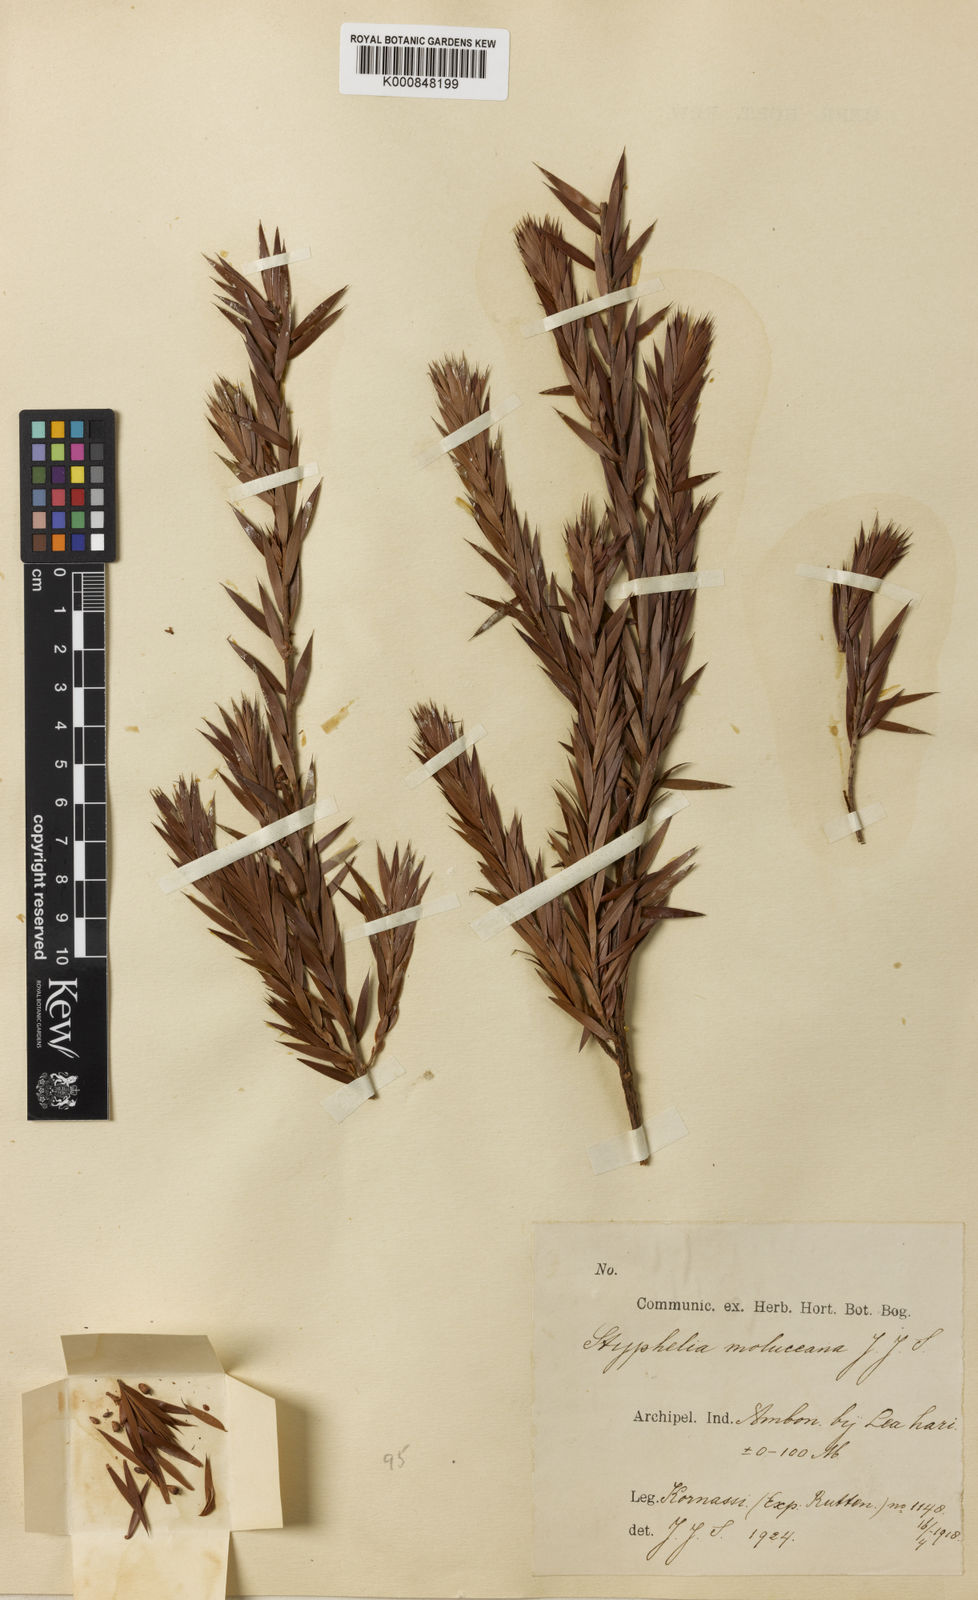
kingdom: Plantae
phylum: Tracheophyta
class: Magnoliopsida
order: Ericales
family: Ericaceae
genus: Styphelia
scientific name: Styphelia abnormis
